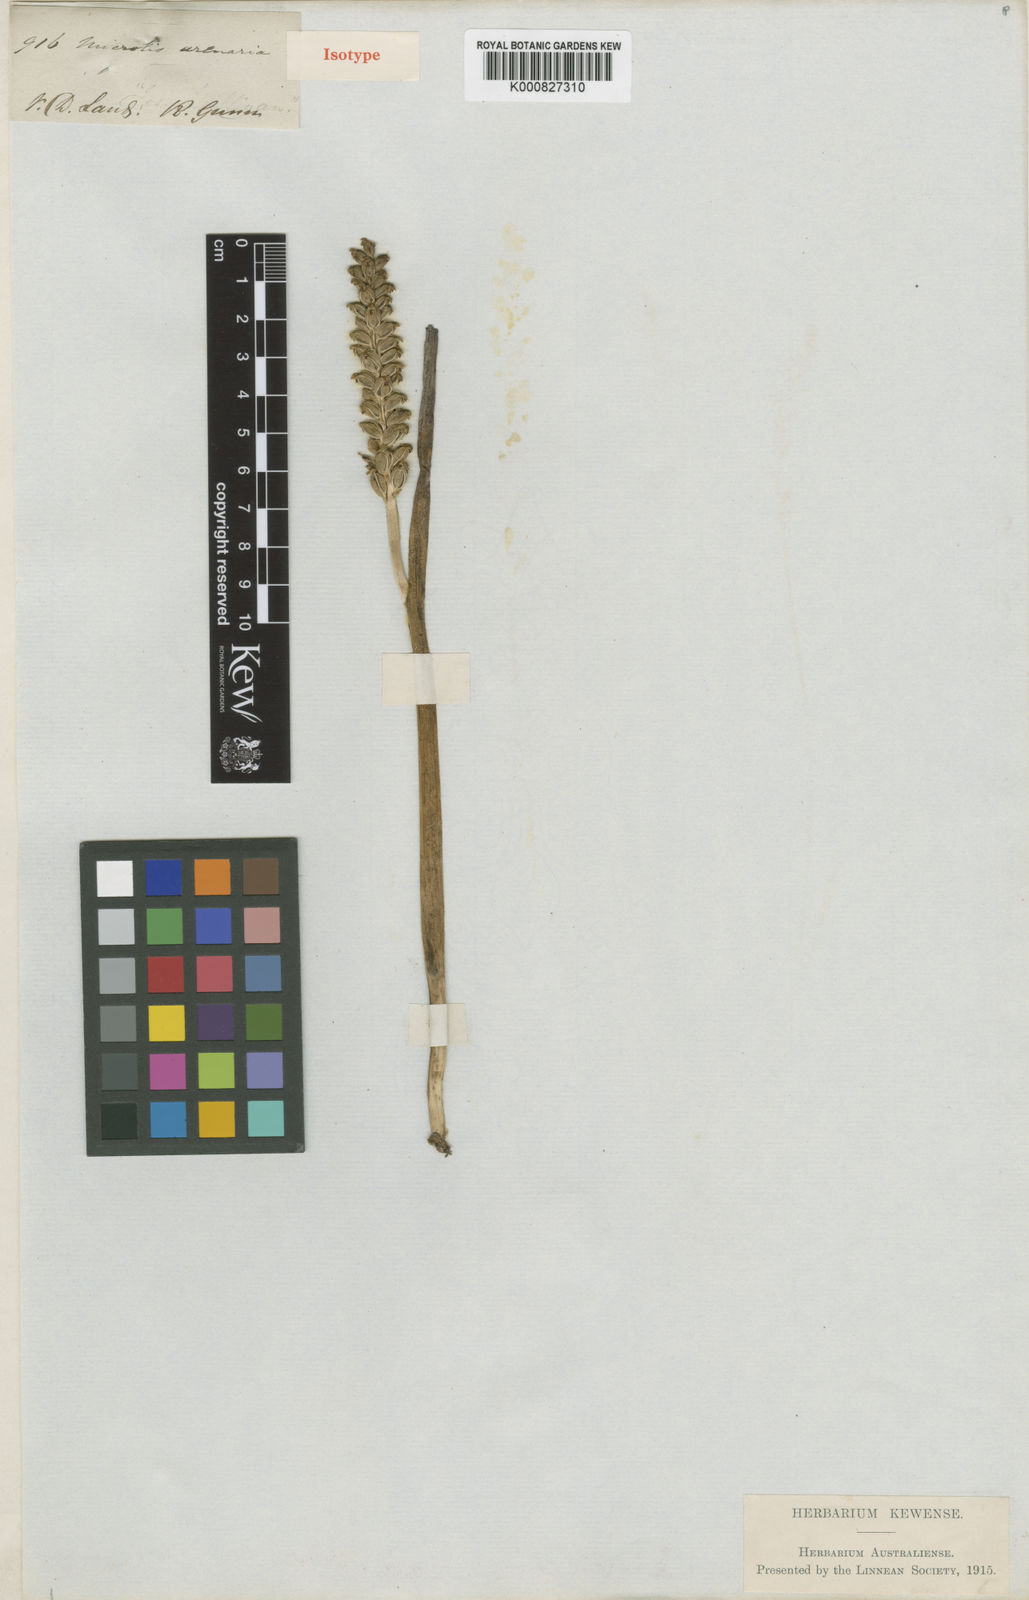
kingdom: Plantae
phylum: Tracheophyta
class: Liliopsida
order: Asparagales
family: Orchidaceae
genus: Microtis
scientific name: Microtis unifolia
